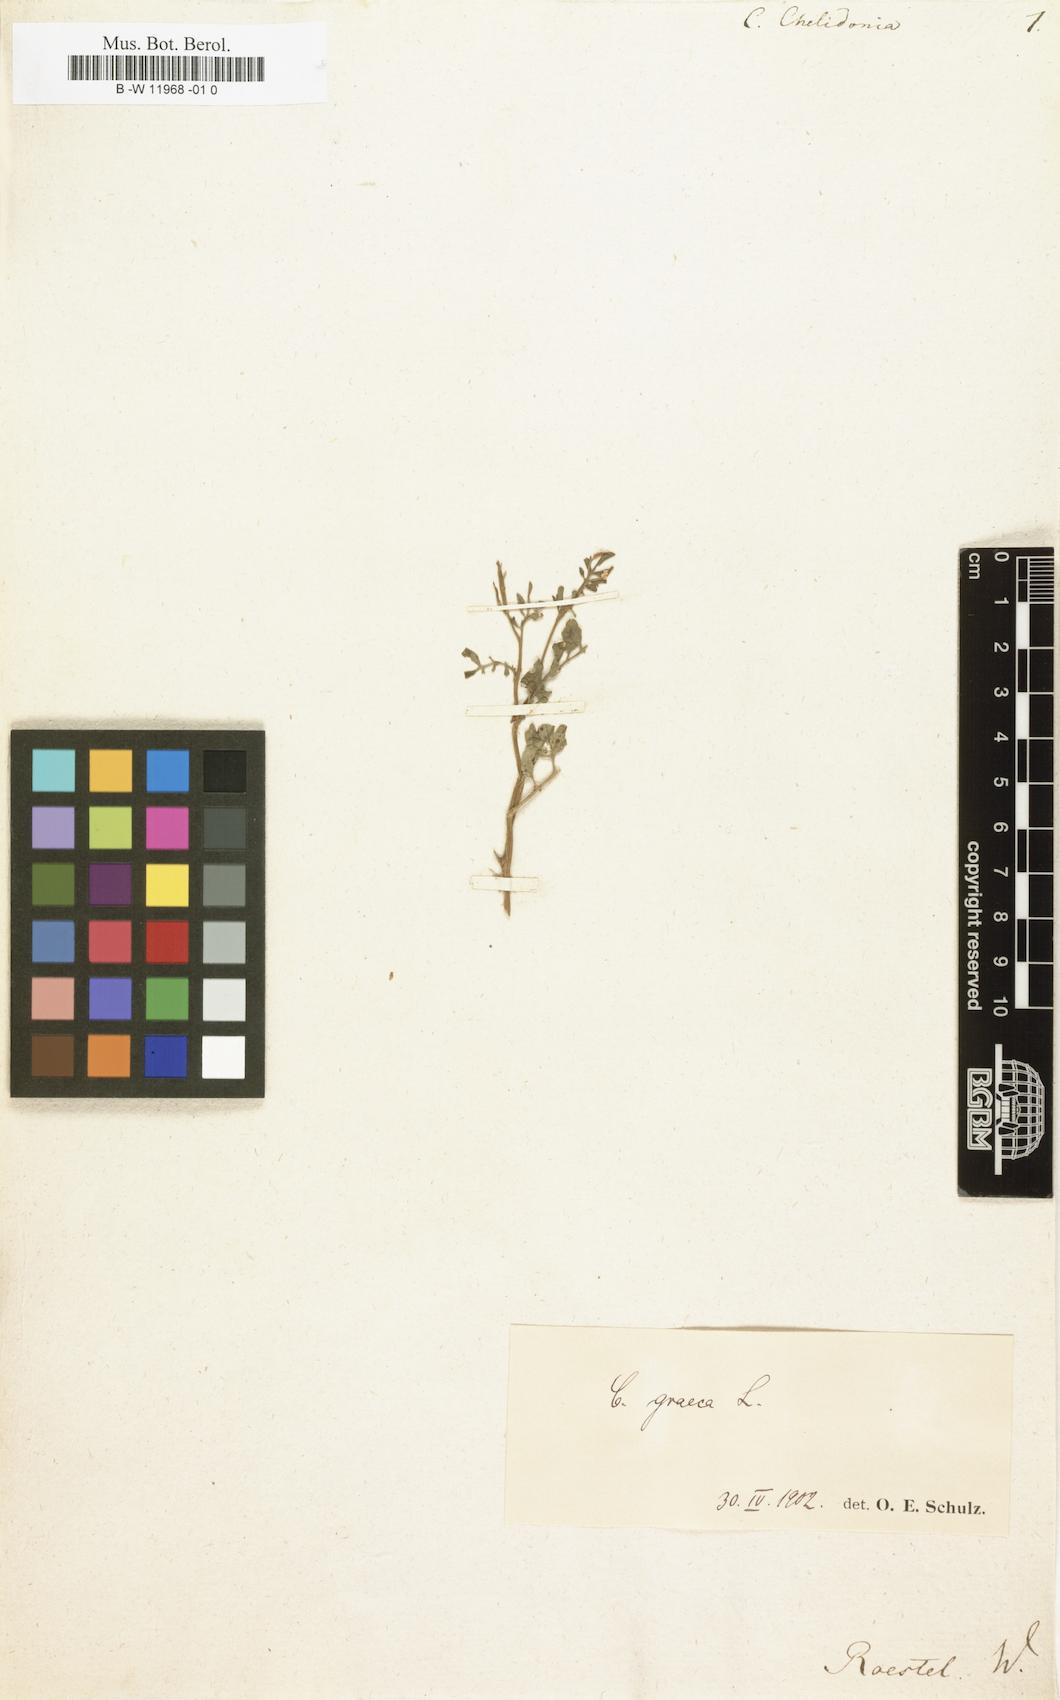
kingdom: Plantae
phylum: Tracheophyta
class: Magnoliopsida
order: Brassicales
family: Brassicaceae
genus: Cardamine
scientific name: Cardamine chelidonia
